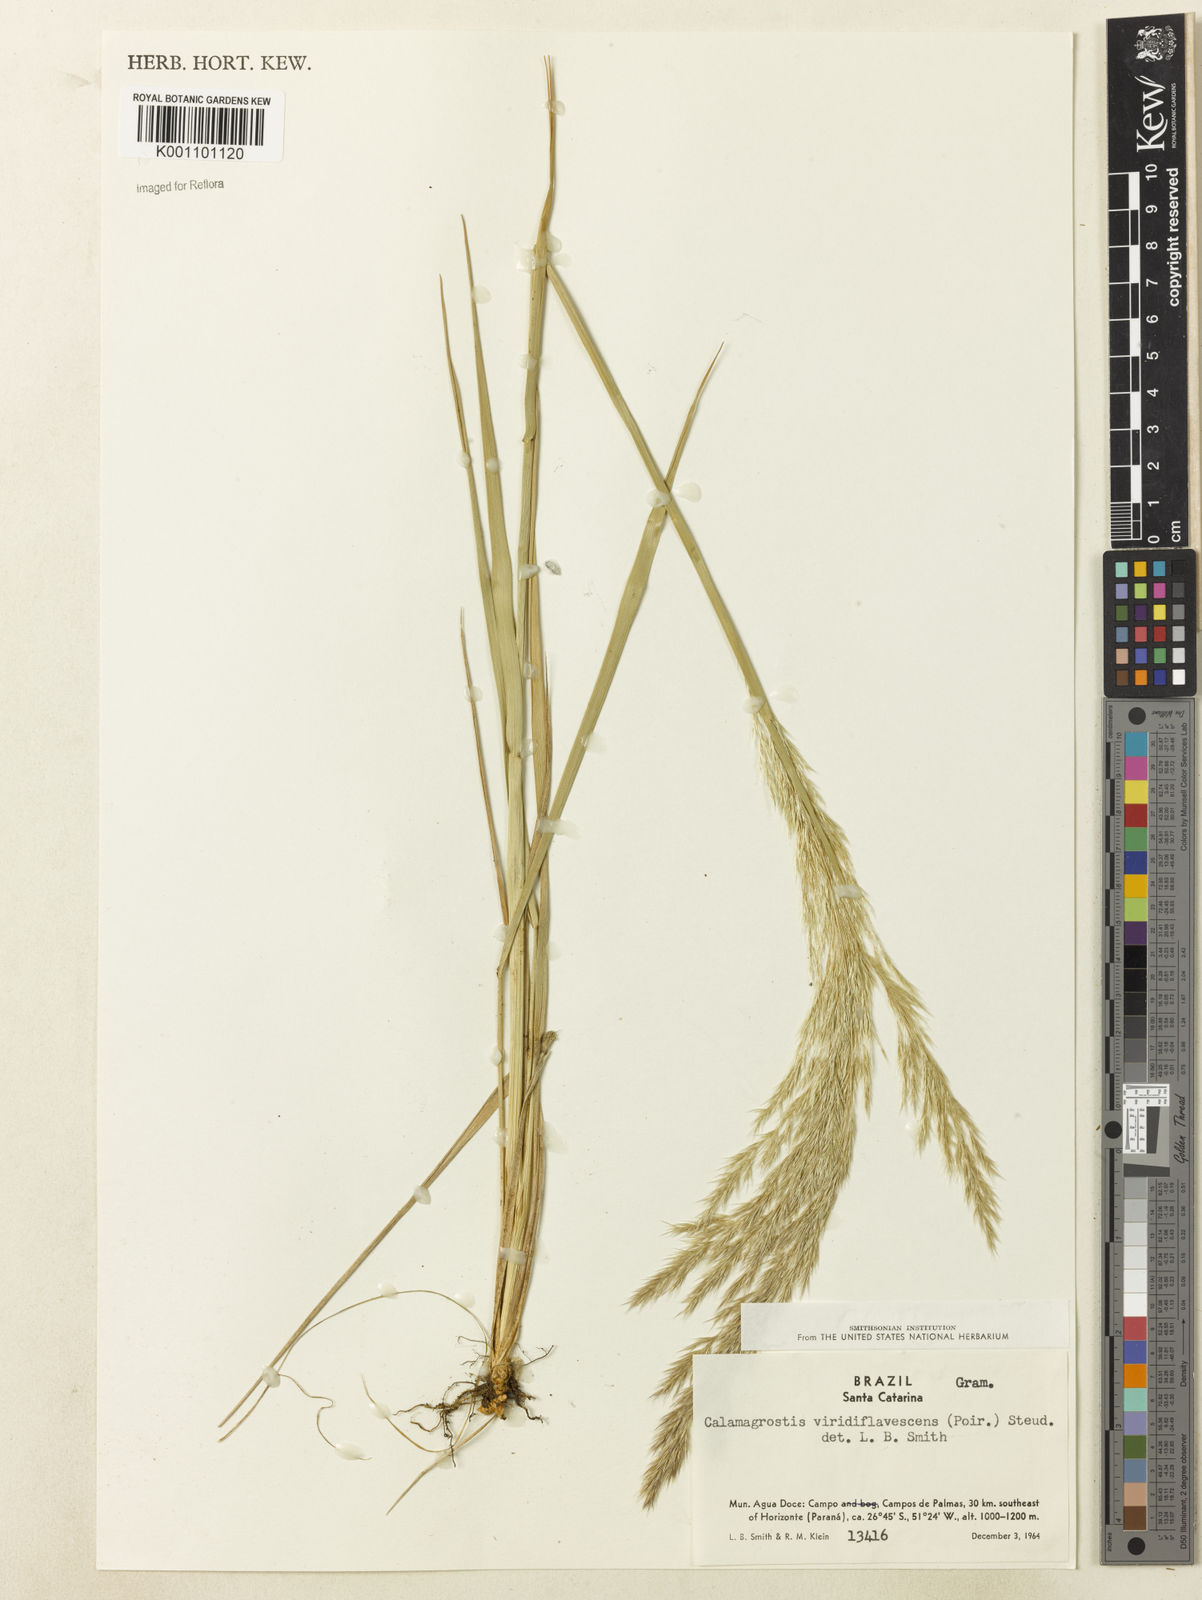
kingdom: Plantae
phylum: Tracheophyta
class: Liliopsida
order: Poales
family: Poaceae
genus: Cinnagrostis
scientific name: Cinnagrostis viridiflavescens
